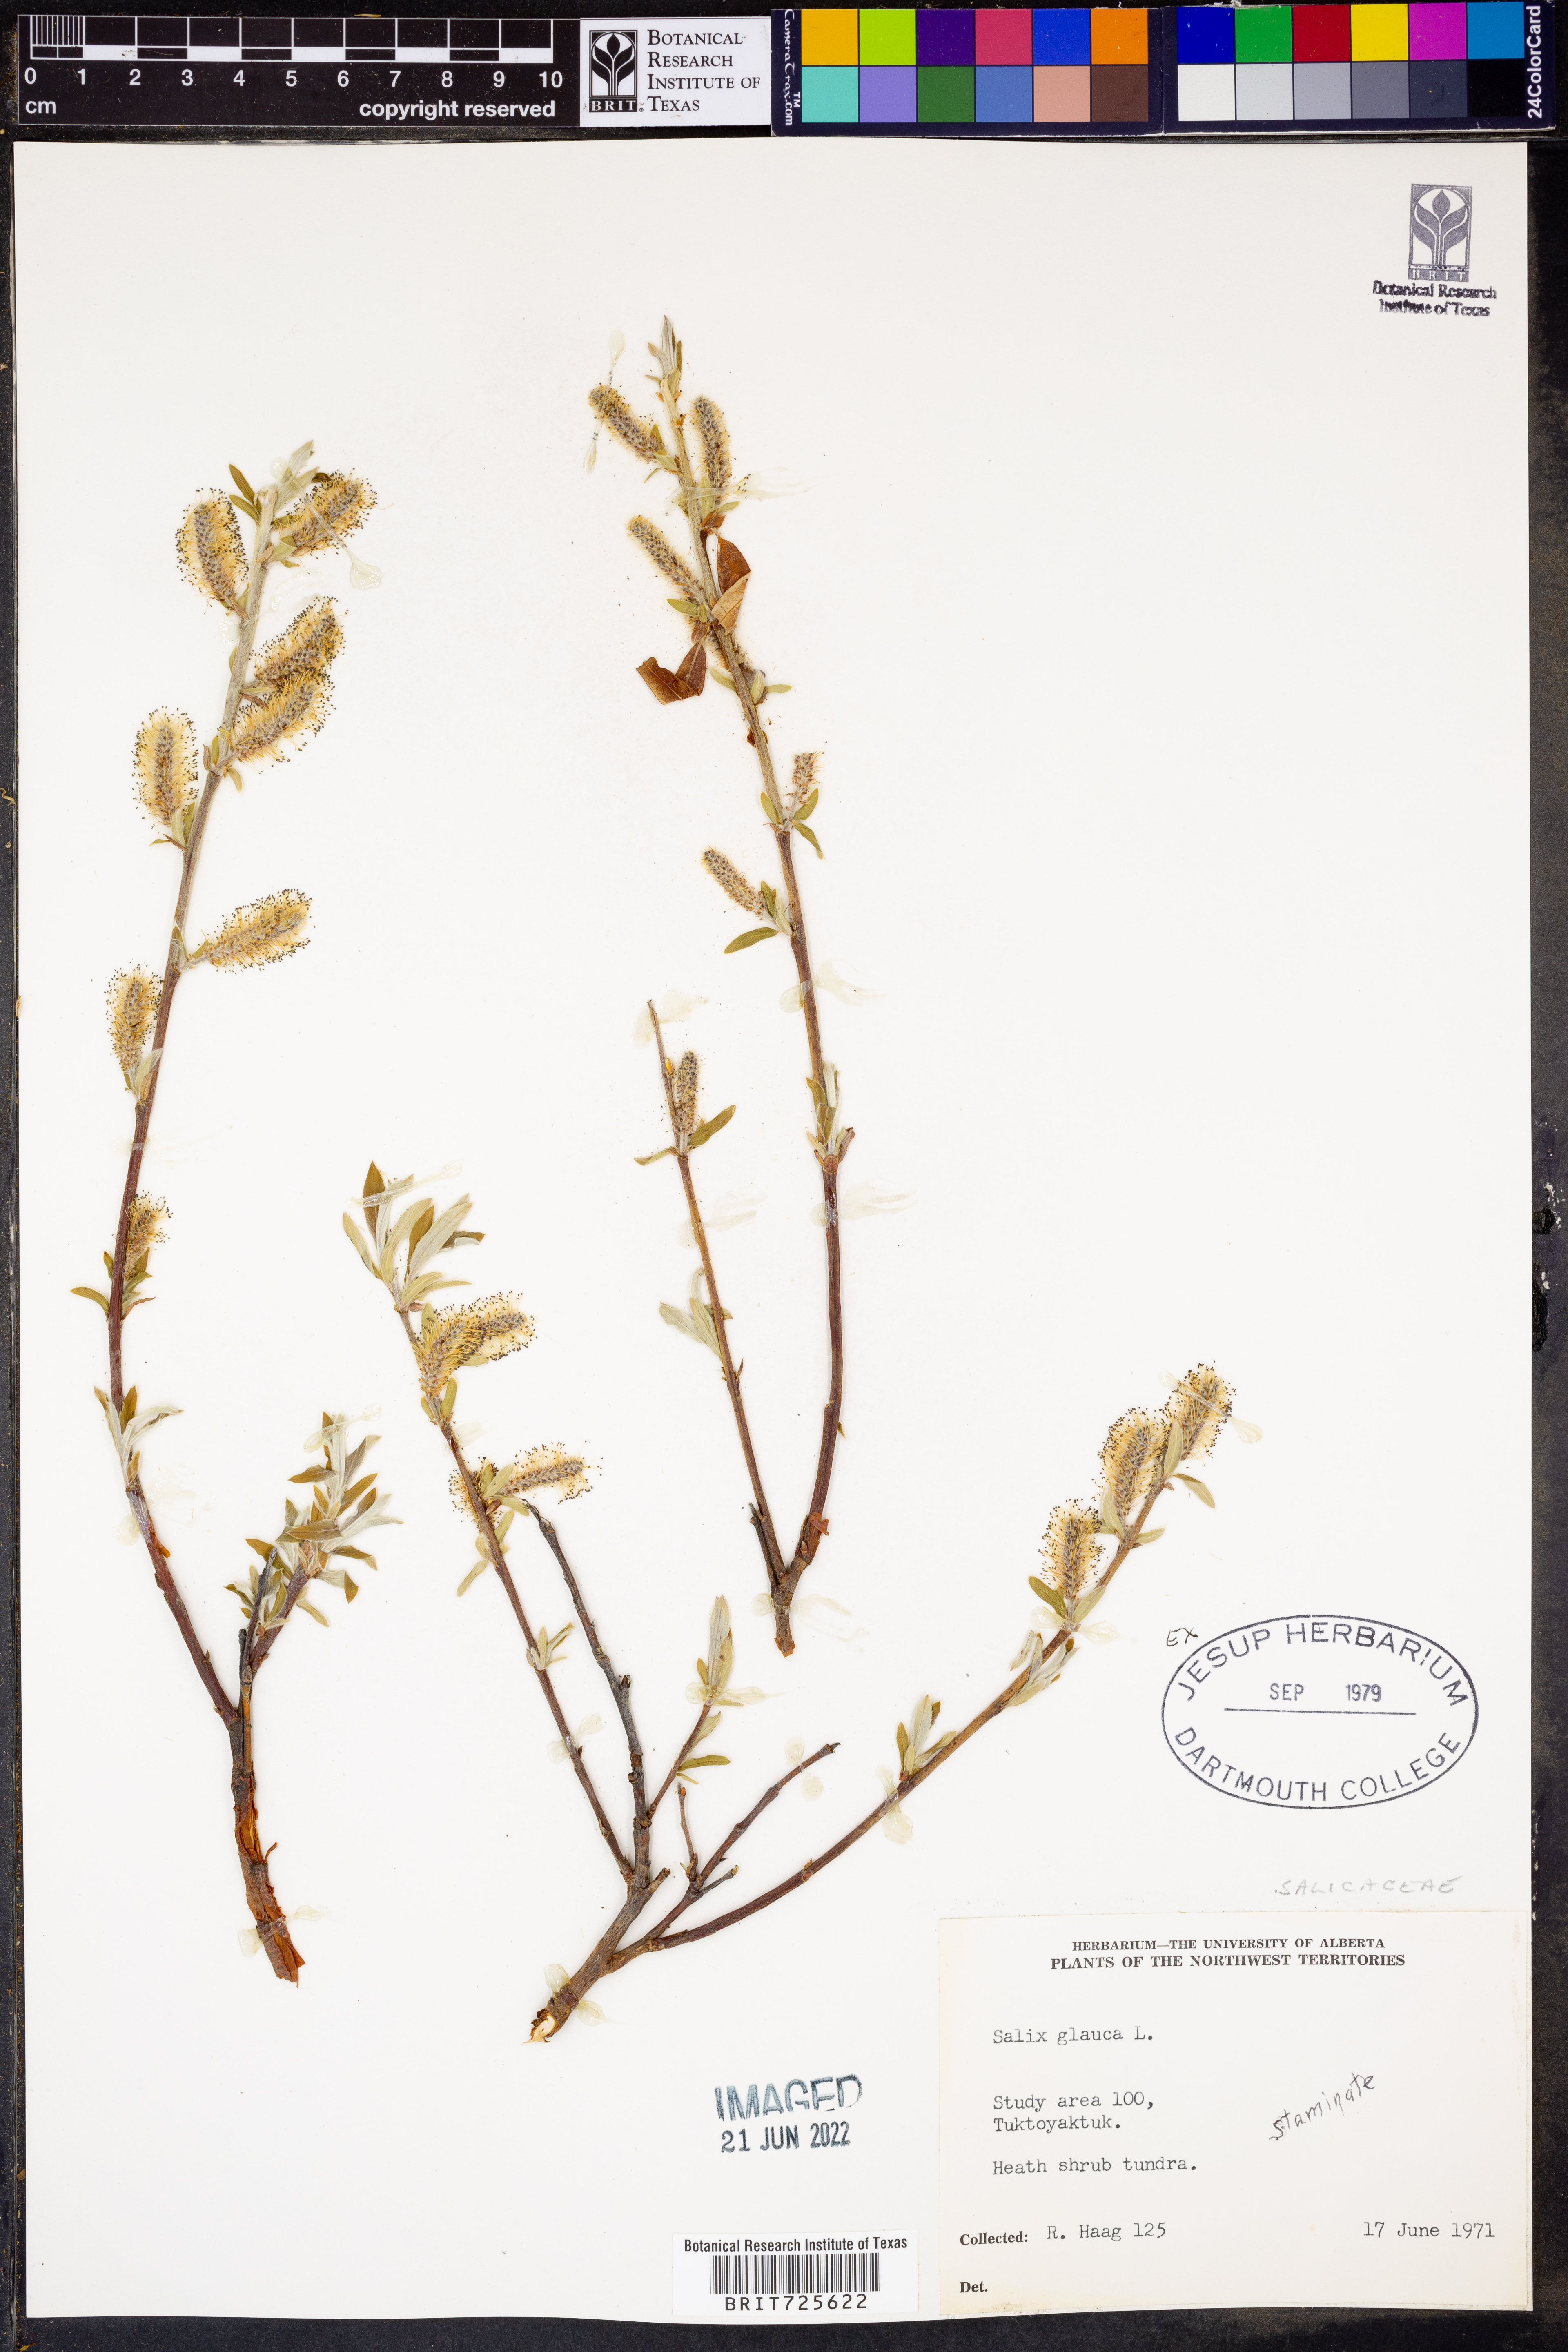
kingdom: Plantae
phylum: Tracheophyta
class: Magnoliopsida
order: Malpighiales
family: Salicaceae
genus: Salix
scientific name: Salix glauca
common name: Glaucous willow
